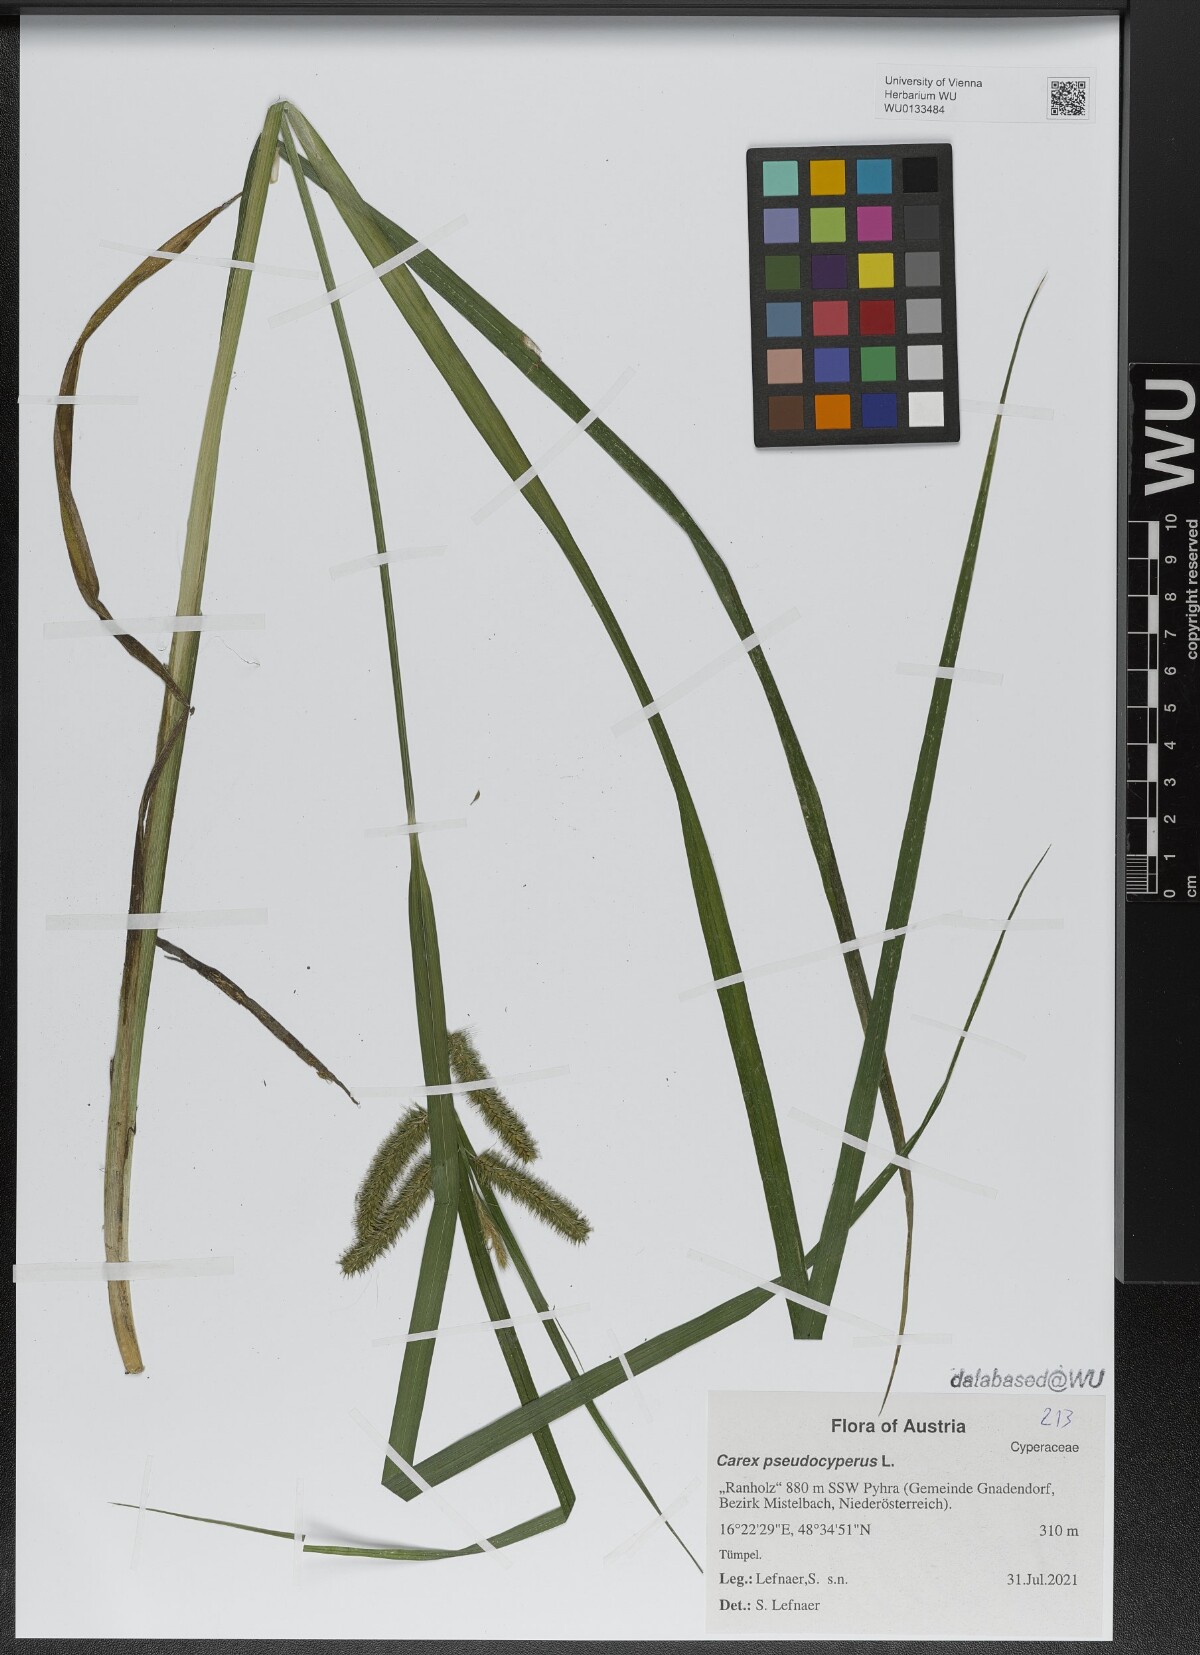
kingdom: Plantae
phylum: Tracheophyta
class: Liliopsida
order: Poales
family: Cyperaceae
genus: Carex
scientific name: Carex pseudocyperus
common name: Cyperus sedge
